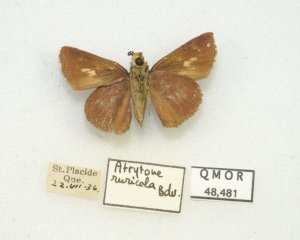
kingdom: Animalia
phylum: Arthropoda
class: Insecta
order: Lepidoptera
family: Hesperiidae
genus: Euphyes
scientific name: Euphyes vestris
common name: Dun Skipper
